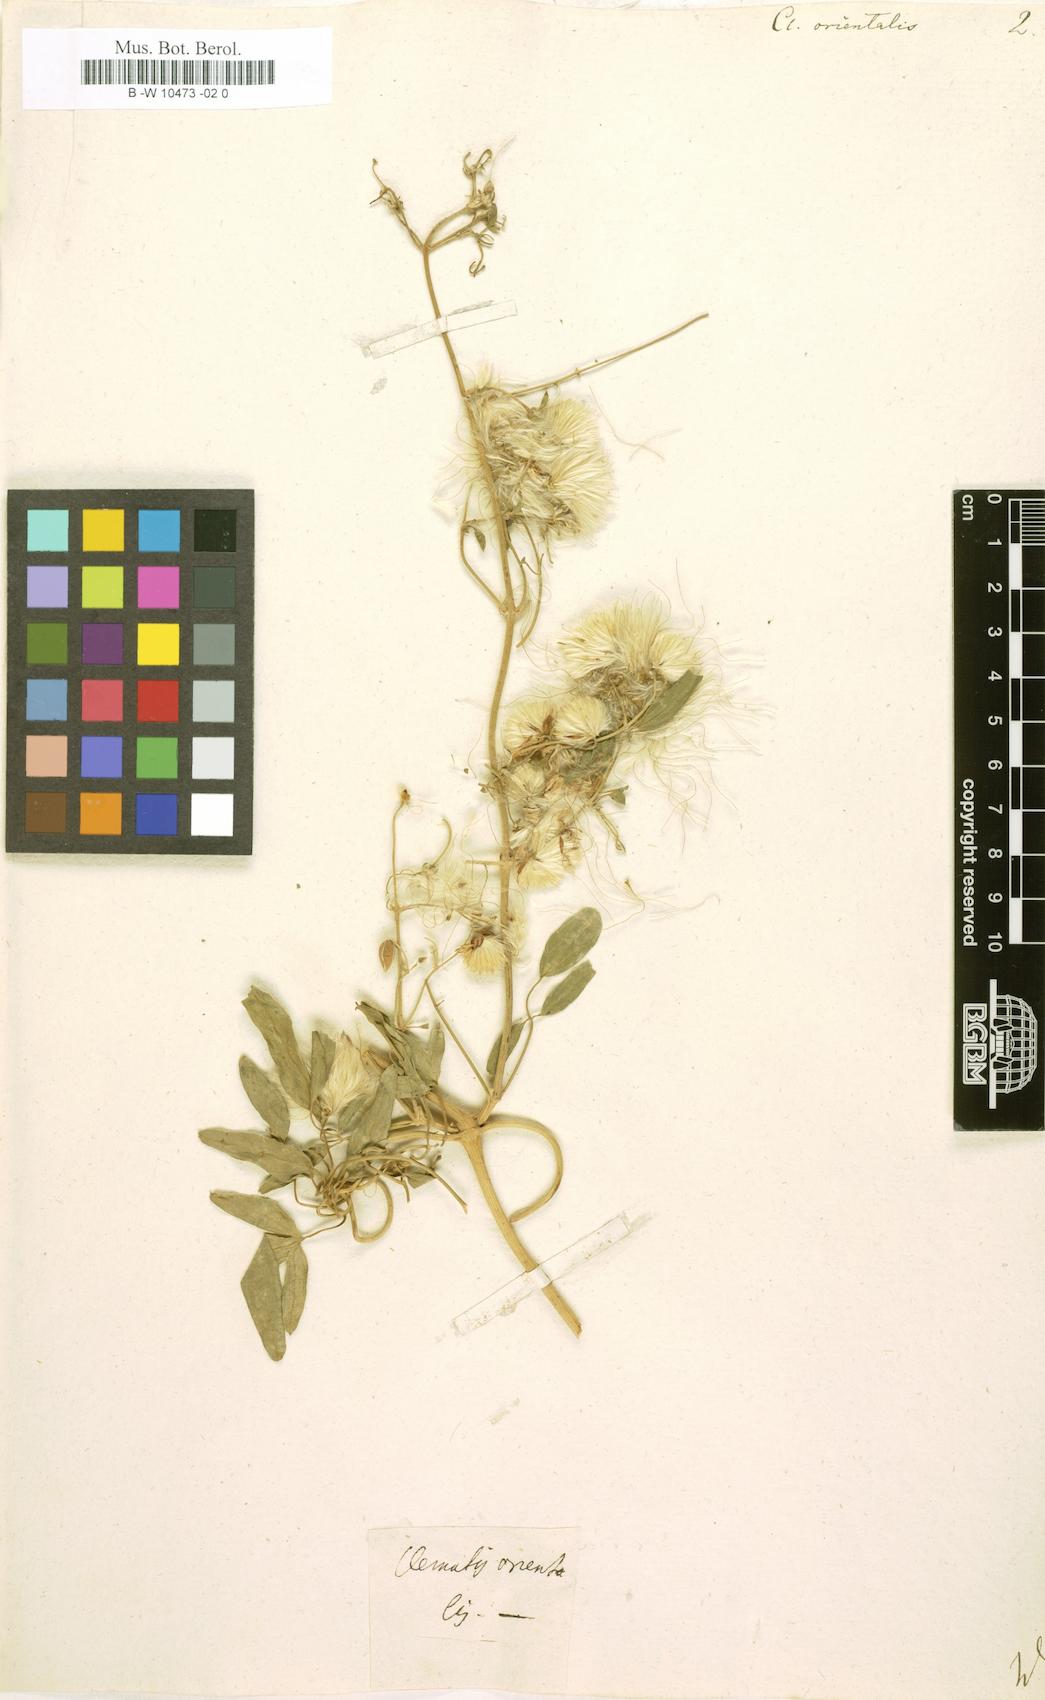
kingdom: Plantae
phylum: Tracheophyta
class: Magnoliopsida
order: Ranunculales
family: Ranunculaceae
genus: Clematis
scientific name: Clematis orientalis
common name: Oriental virgin's-bower
